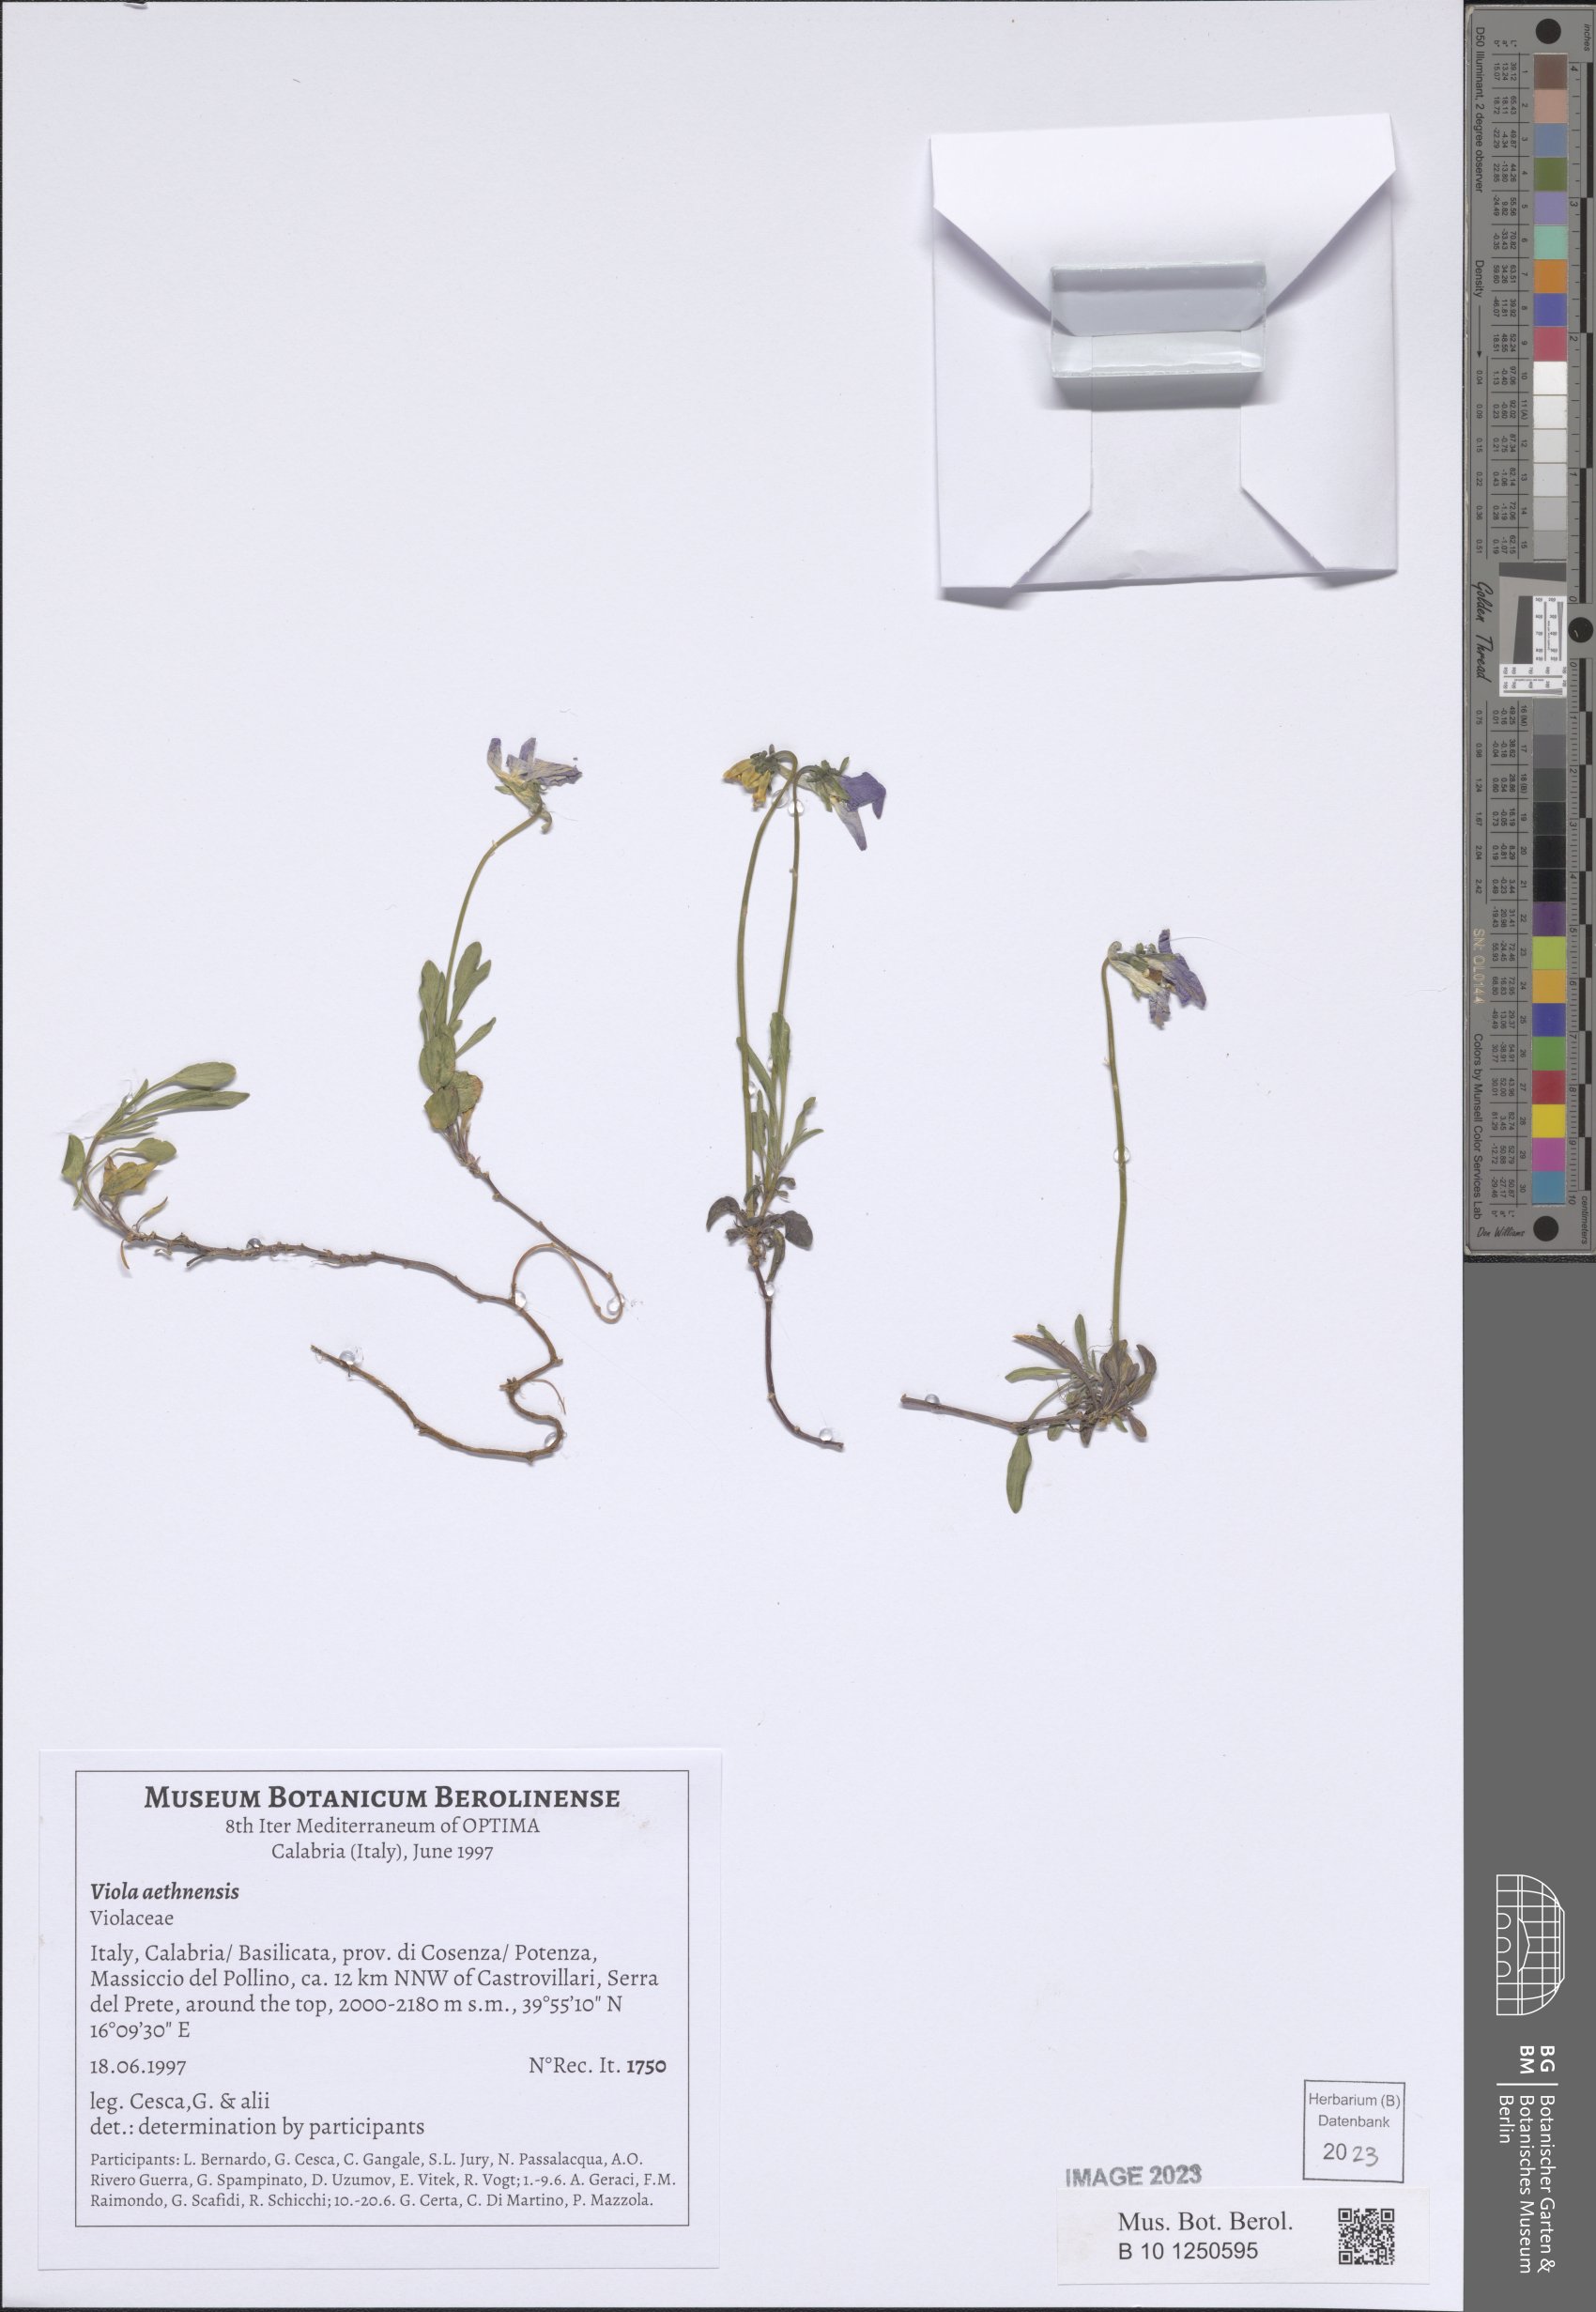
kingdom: Plantae
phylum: Tracheophyta
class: Magnoliopsida
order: Malpighiales
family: Violaceae
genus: Viola
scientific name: Viola aethnensis
